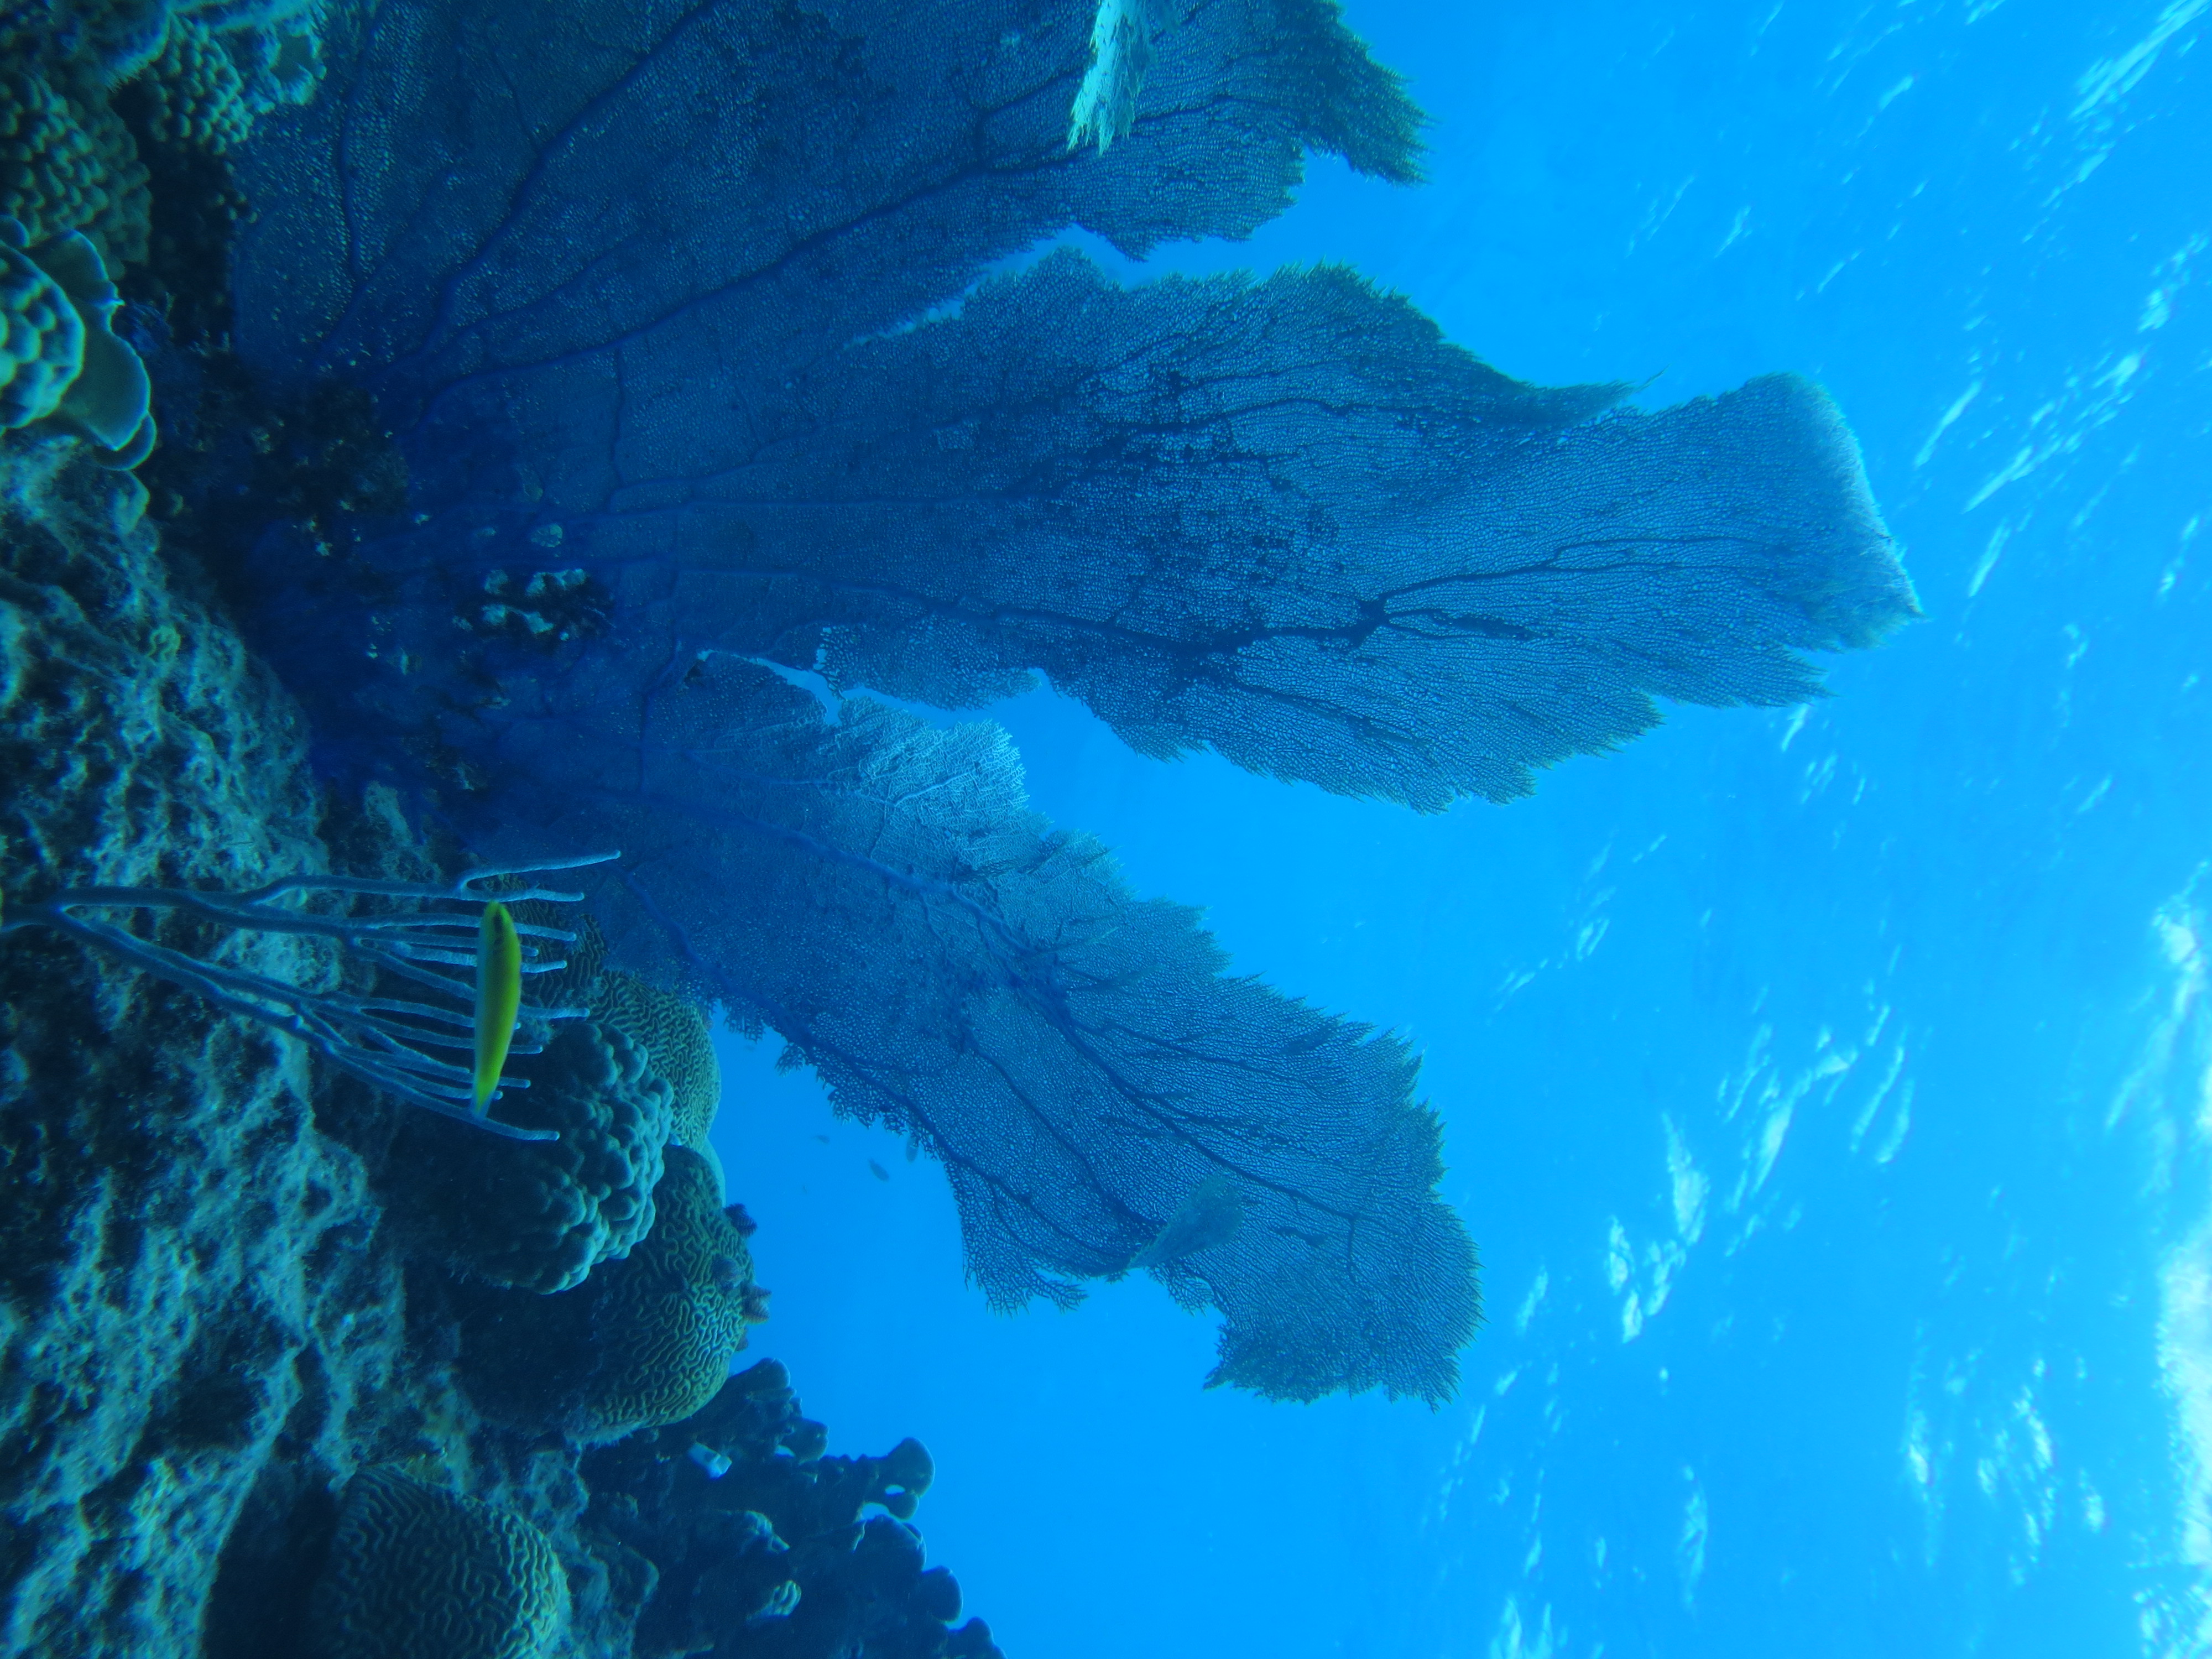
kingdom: Animalia
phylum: Cnidaria
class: Anthozoa
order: Malacalcyonacea
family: Gorgoniidae
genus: Gorgonia
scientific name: Gorgonia
